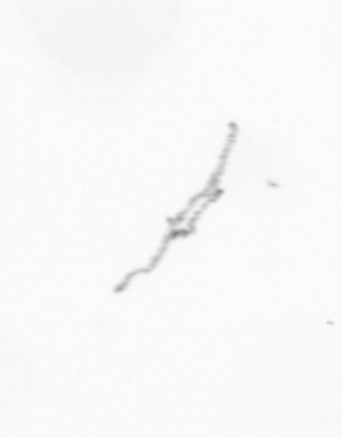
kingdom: Chromista
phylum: Ochrophyta
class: Bacillariophyceae
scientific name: Bacillariophyceae
